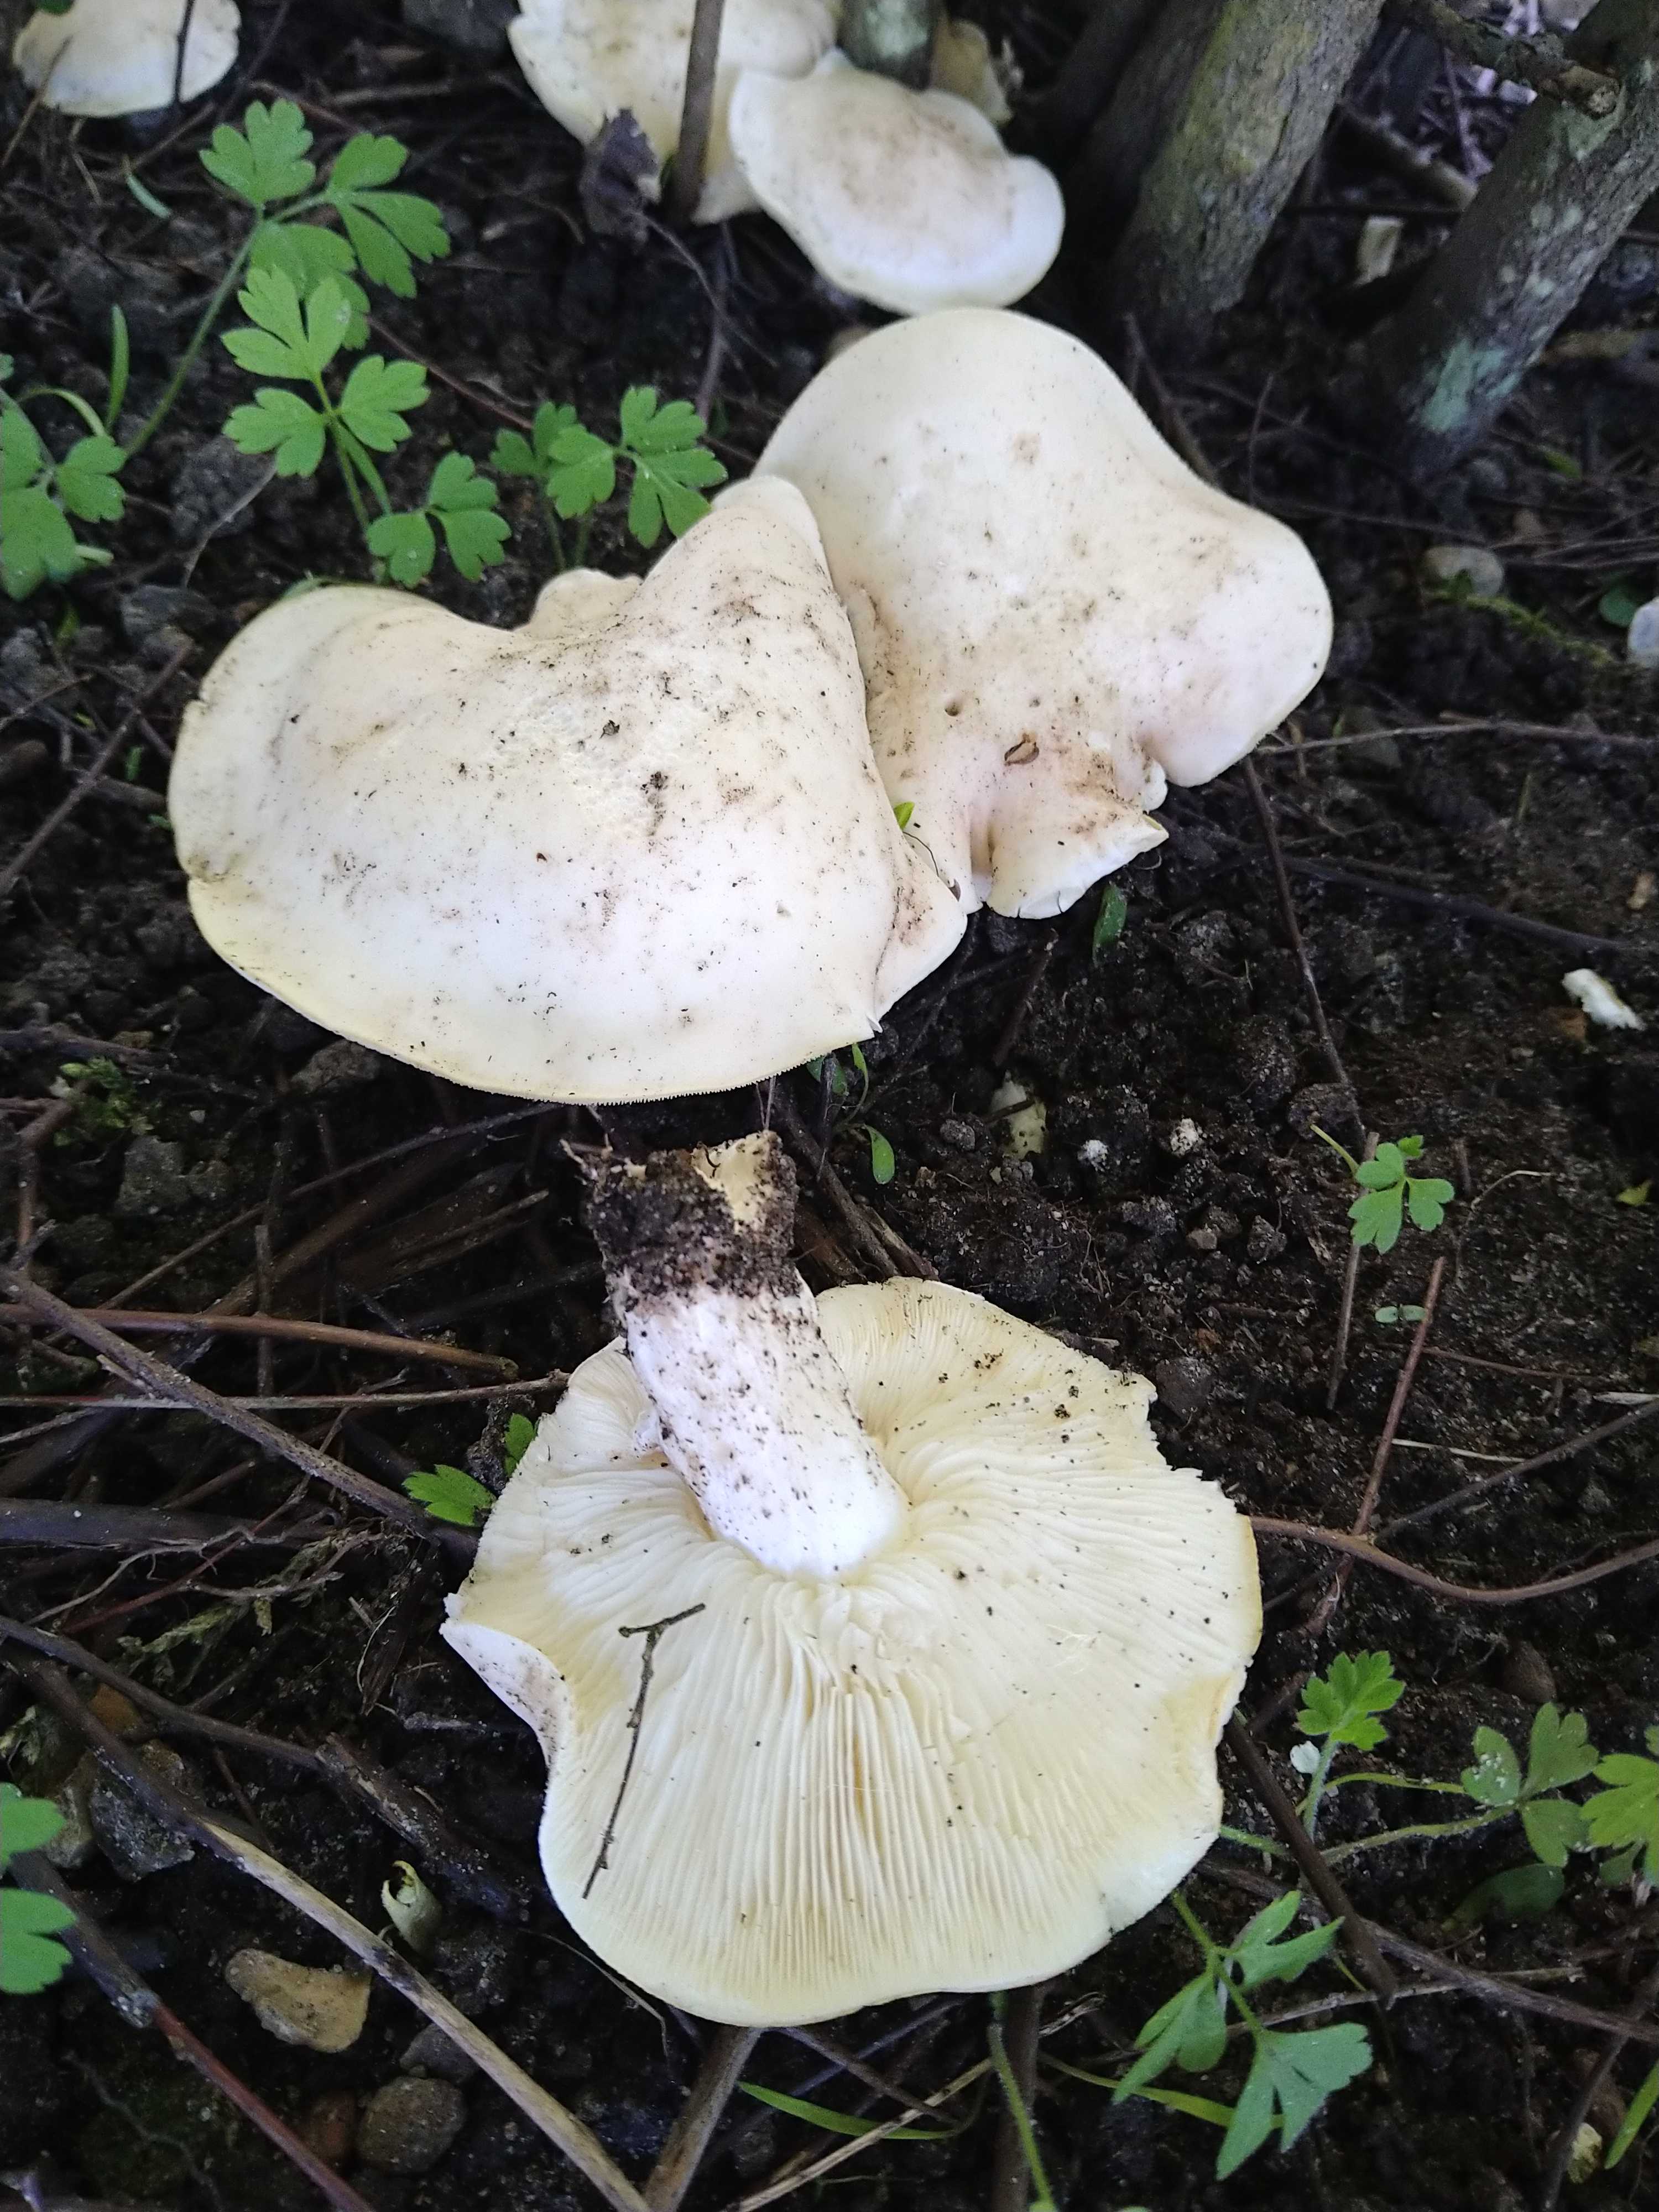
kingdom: Fungi
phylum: Basidiomycota
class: Agaricomycetes
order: Agaricales
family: Lyophyllaceae
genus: Calocybe
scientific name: Calocybe gambosa
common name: vårmusseron
